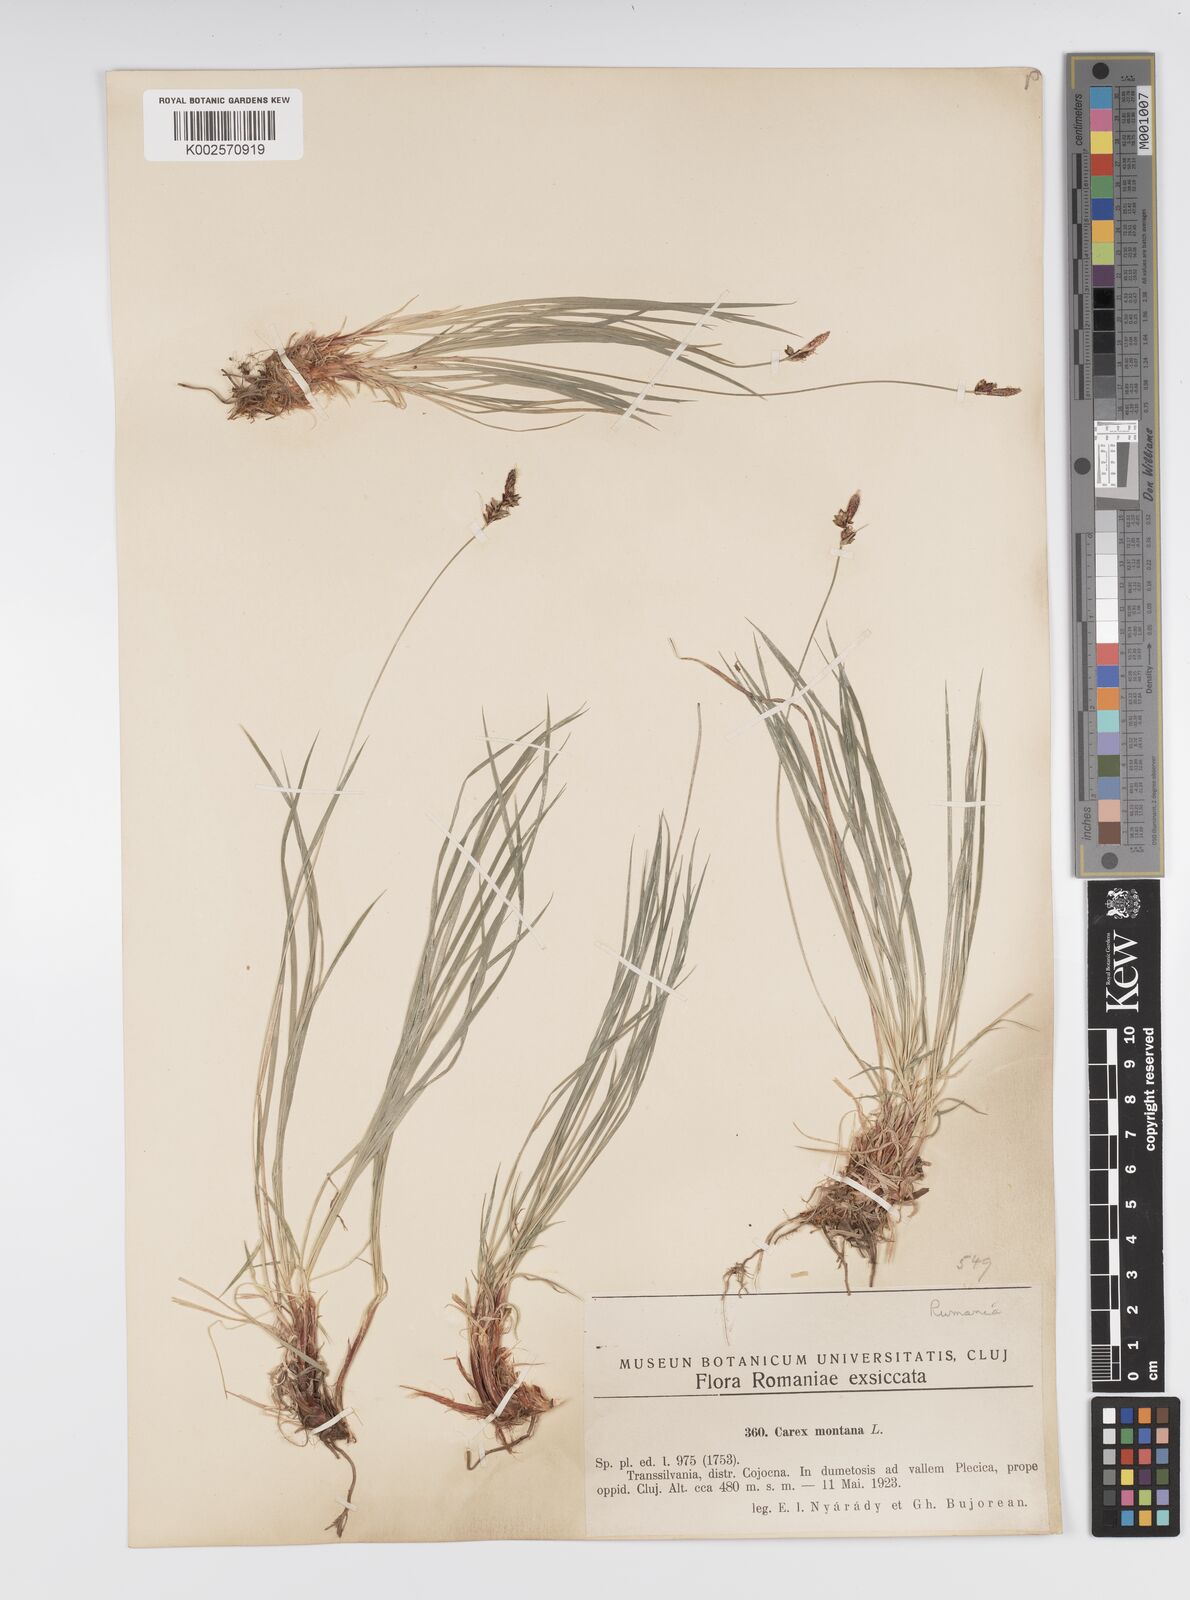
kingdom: Plantae
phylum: Tracheophyta
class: Liliopsida
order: Poales
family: Cyperaceae
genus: Carex
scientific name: Carex montana
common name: Soft-leaved sedge
